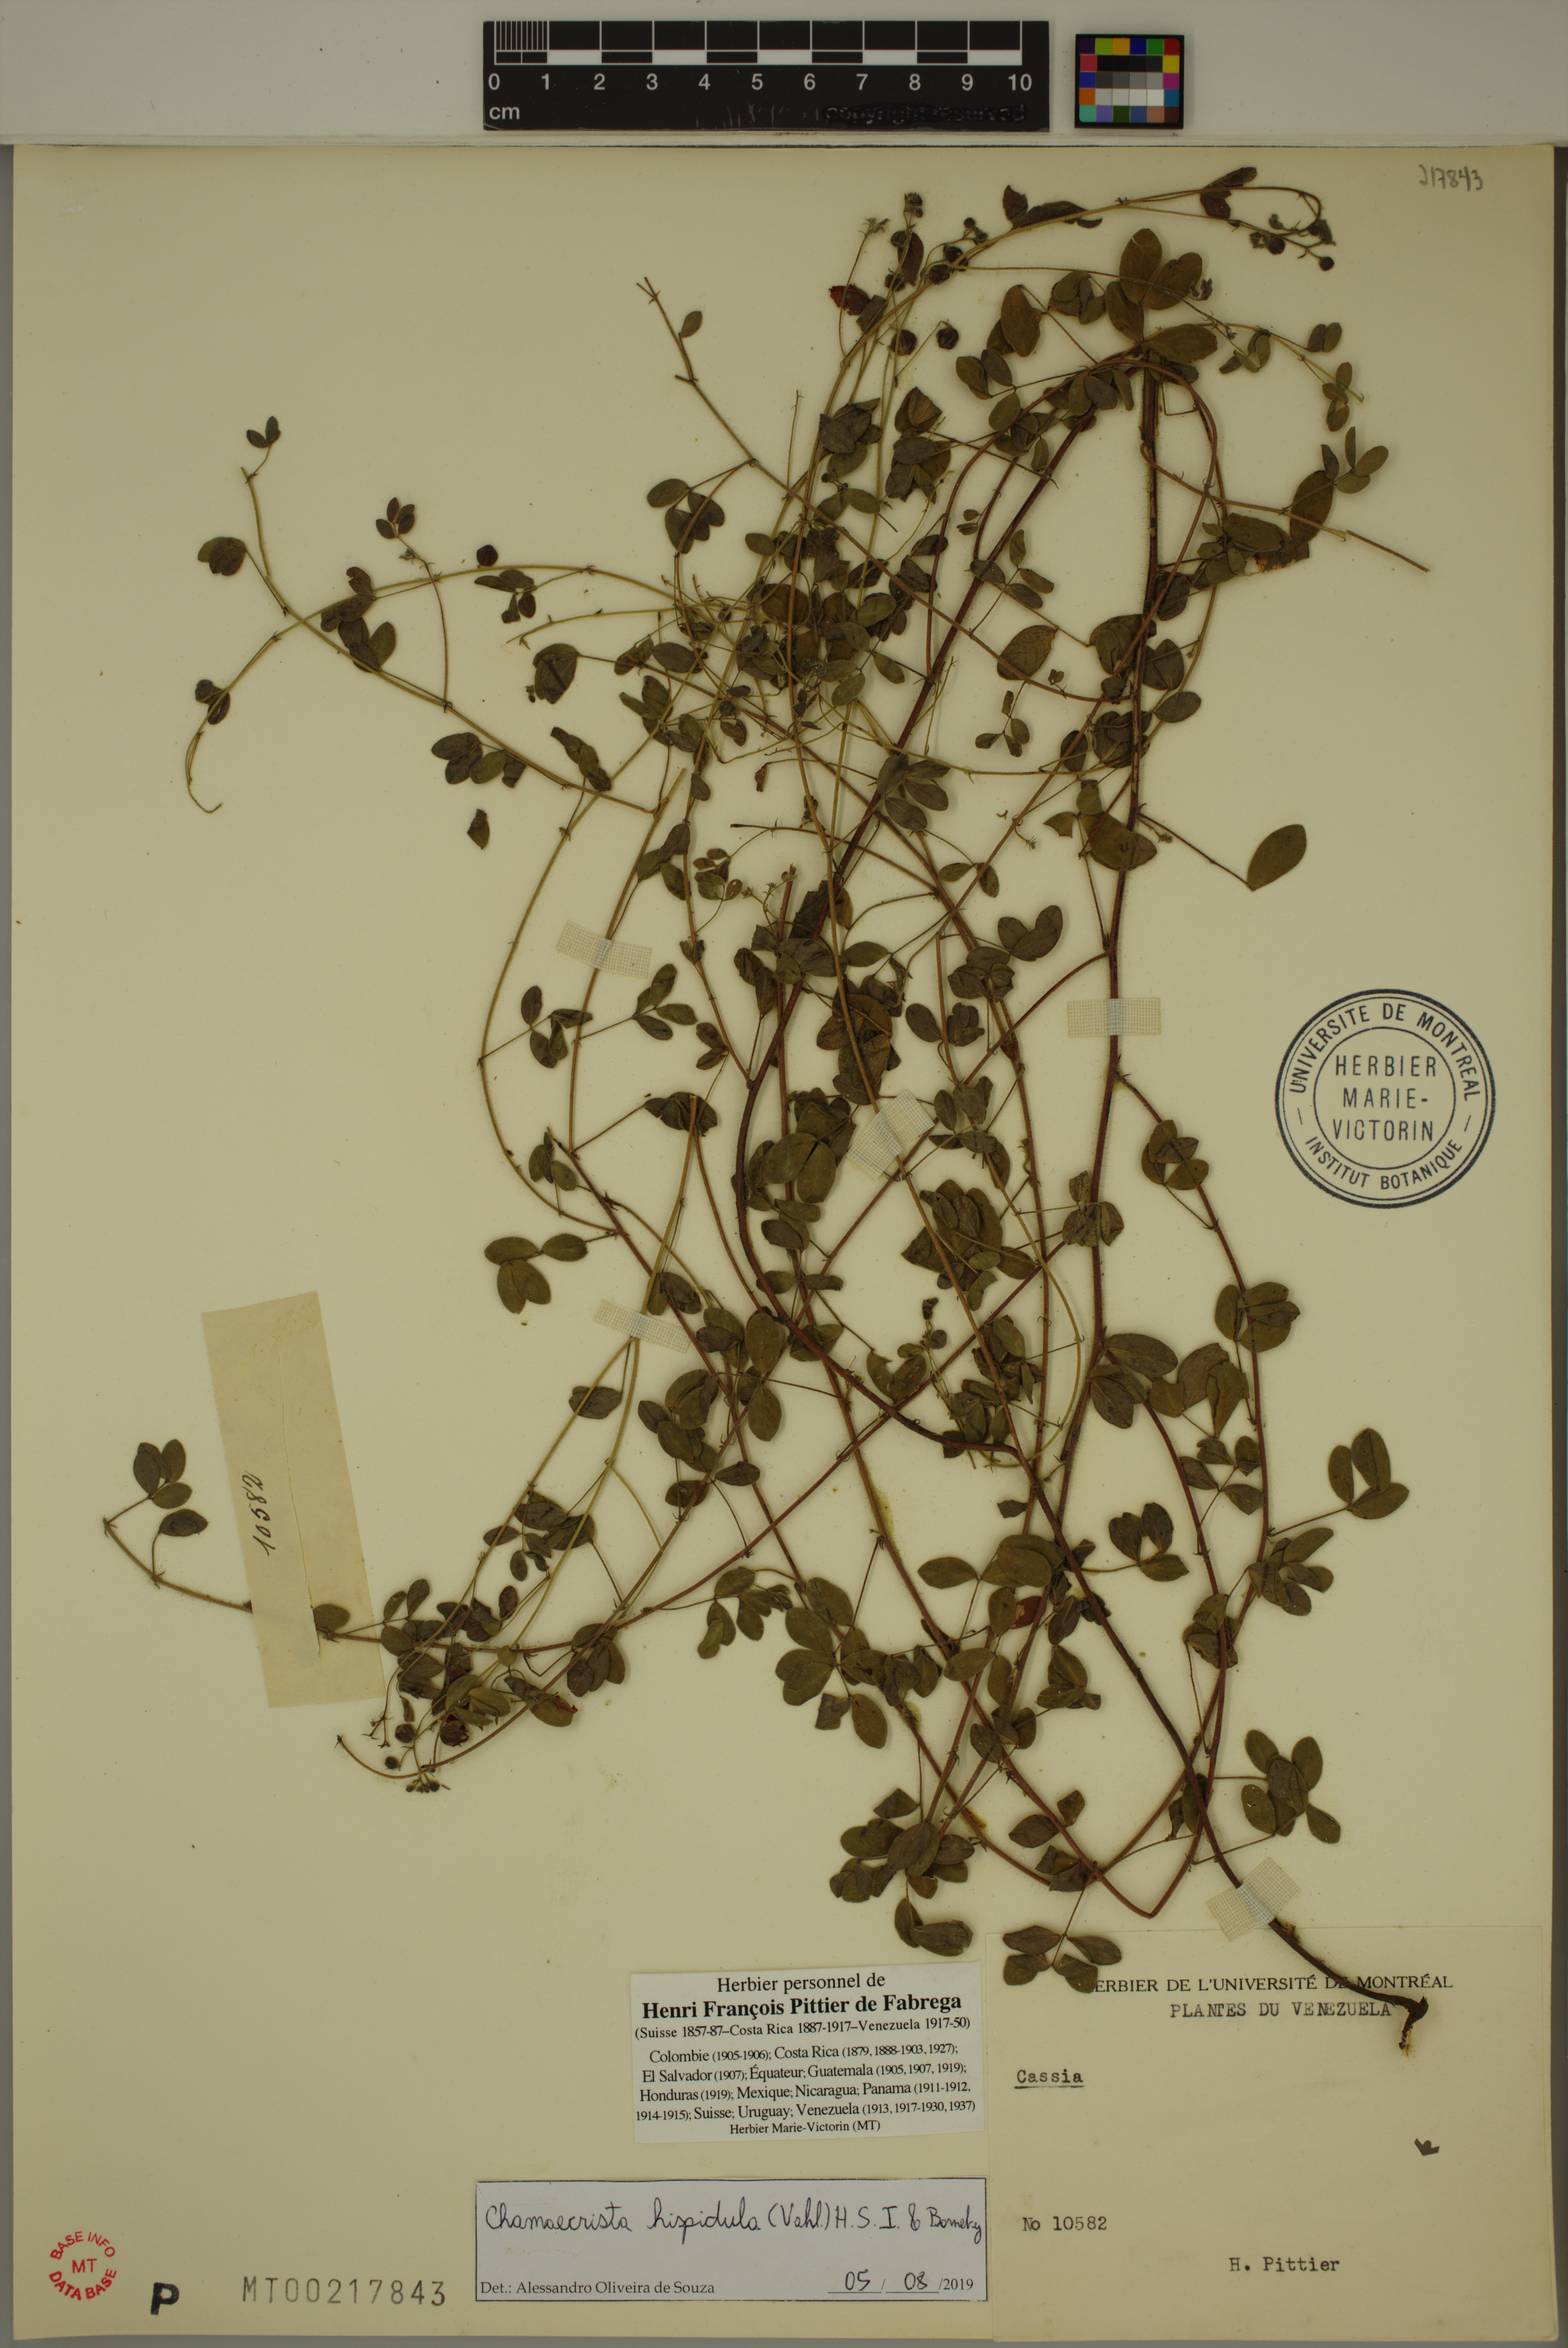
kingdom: Plantae
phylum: Tracheophyta
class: Magnoliopsida
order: Fabales
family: Fabaceae
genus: Chamaecrista
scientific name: Chamaecrista hispidula
